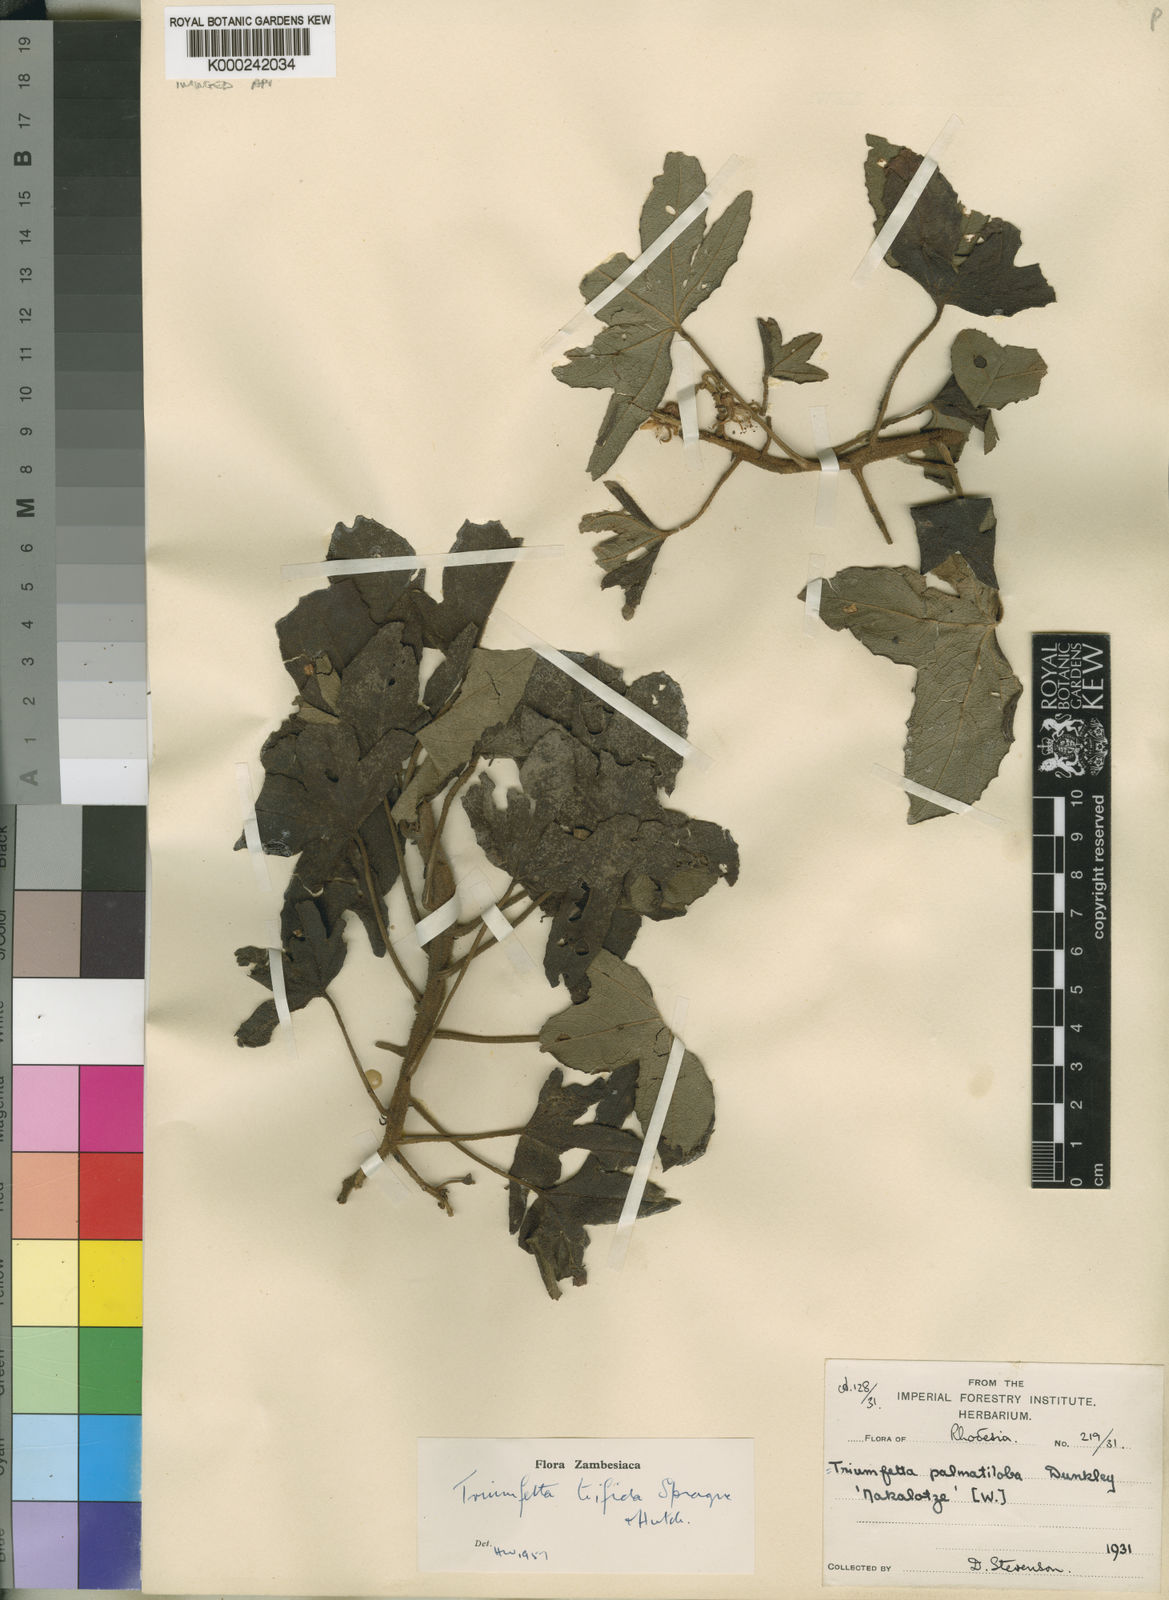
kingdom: Plantae
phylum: Tracheophyta
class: Magnoliopsida
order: Malvales
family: Malvaceae
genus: Triumfetta
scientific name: Triumfetta trifida
